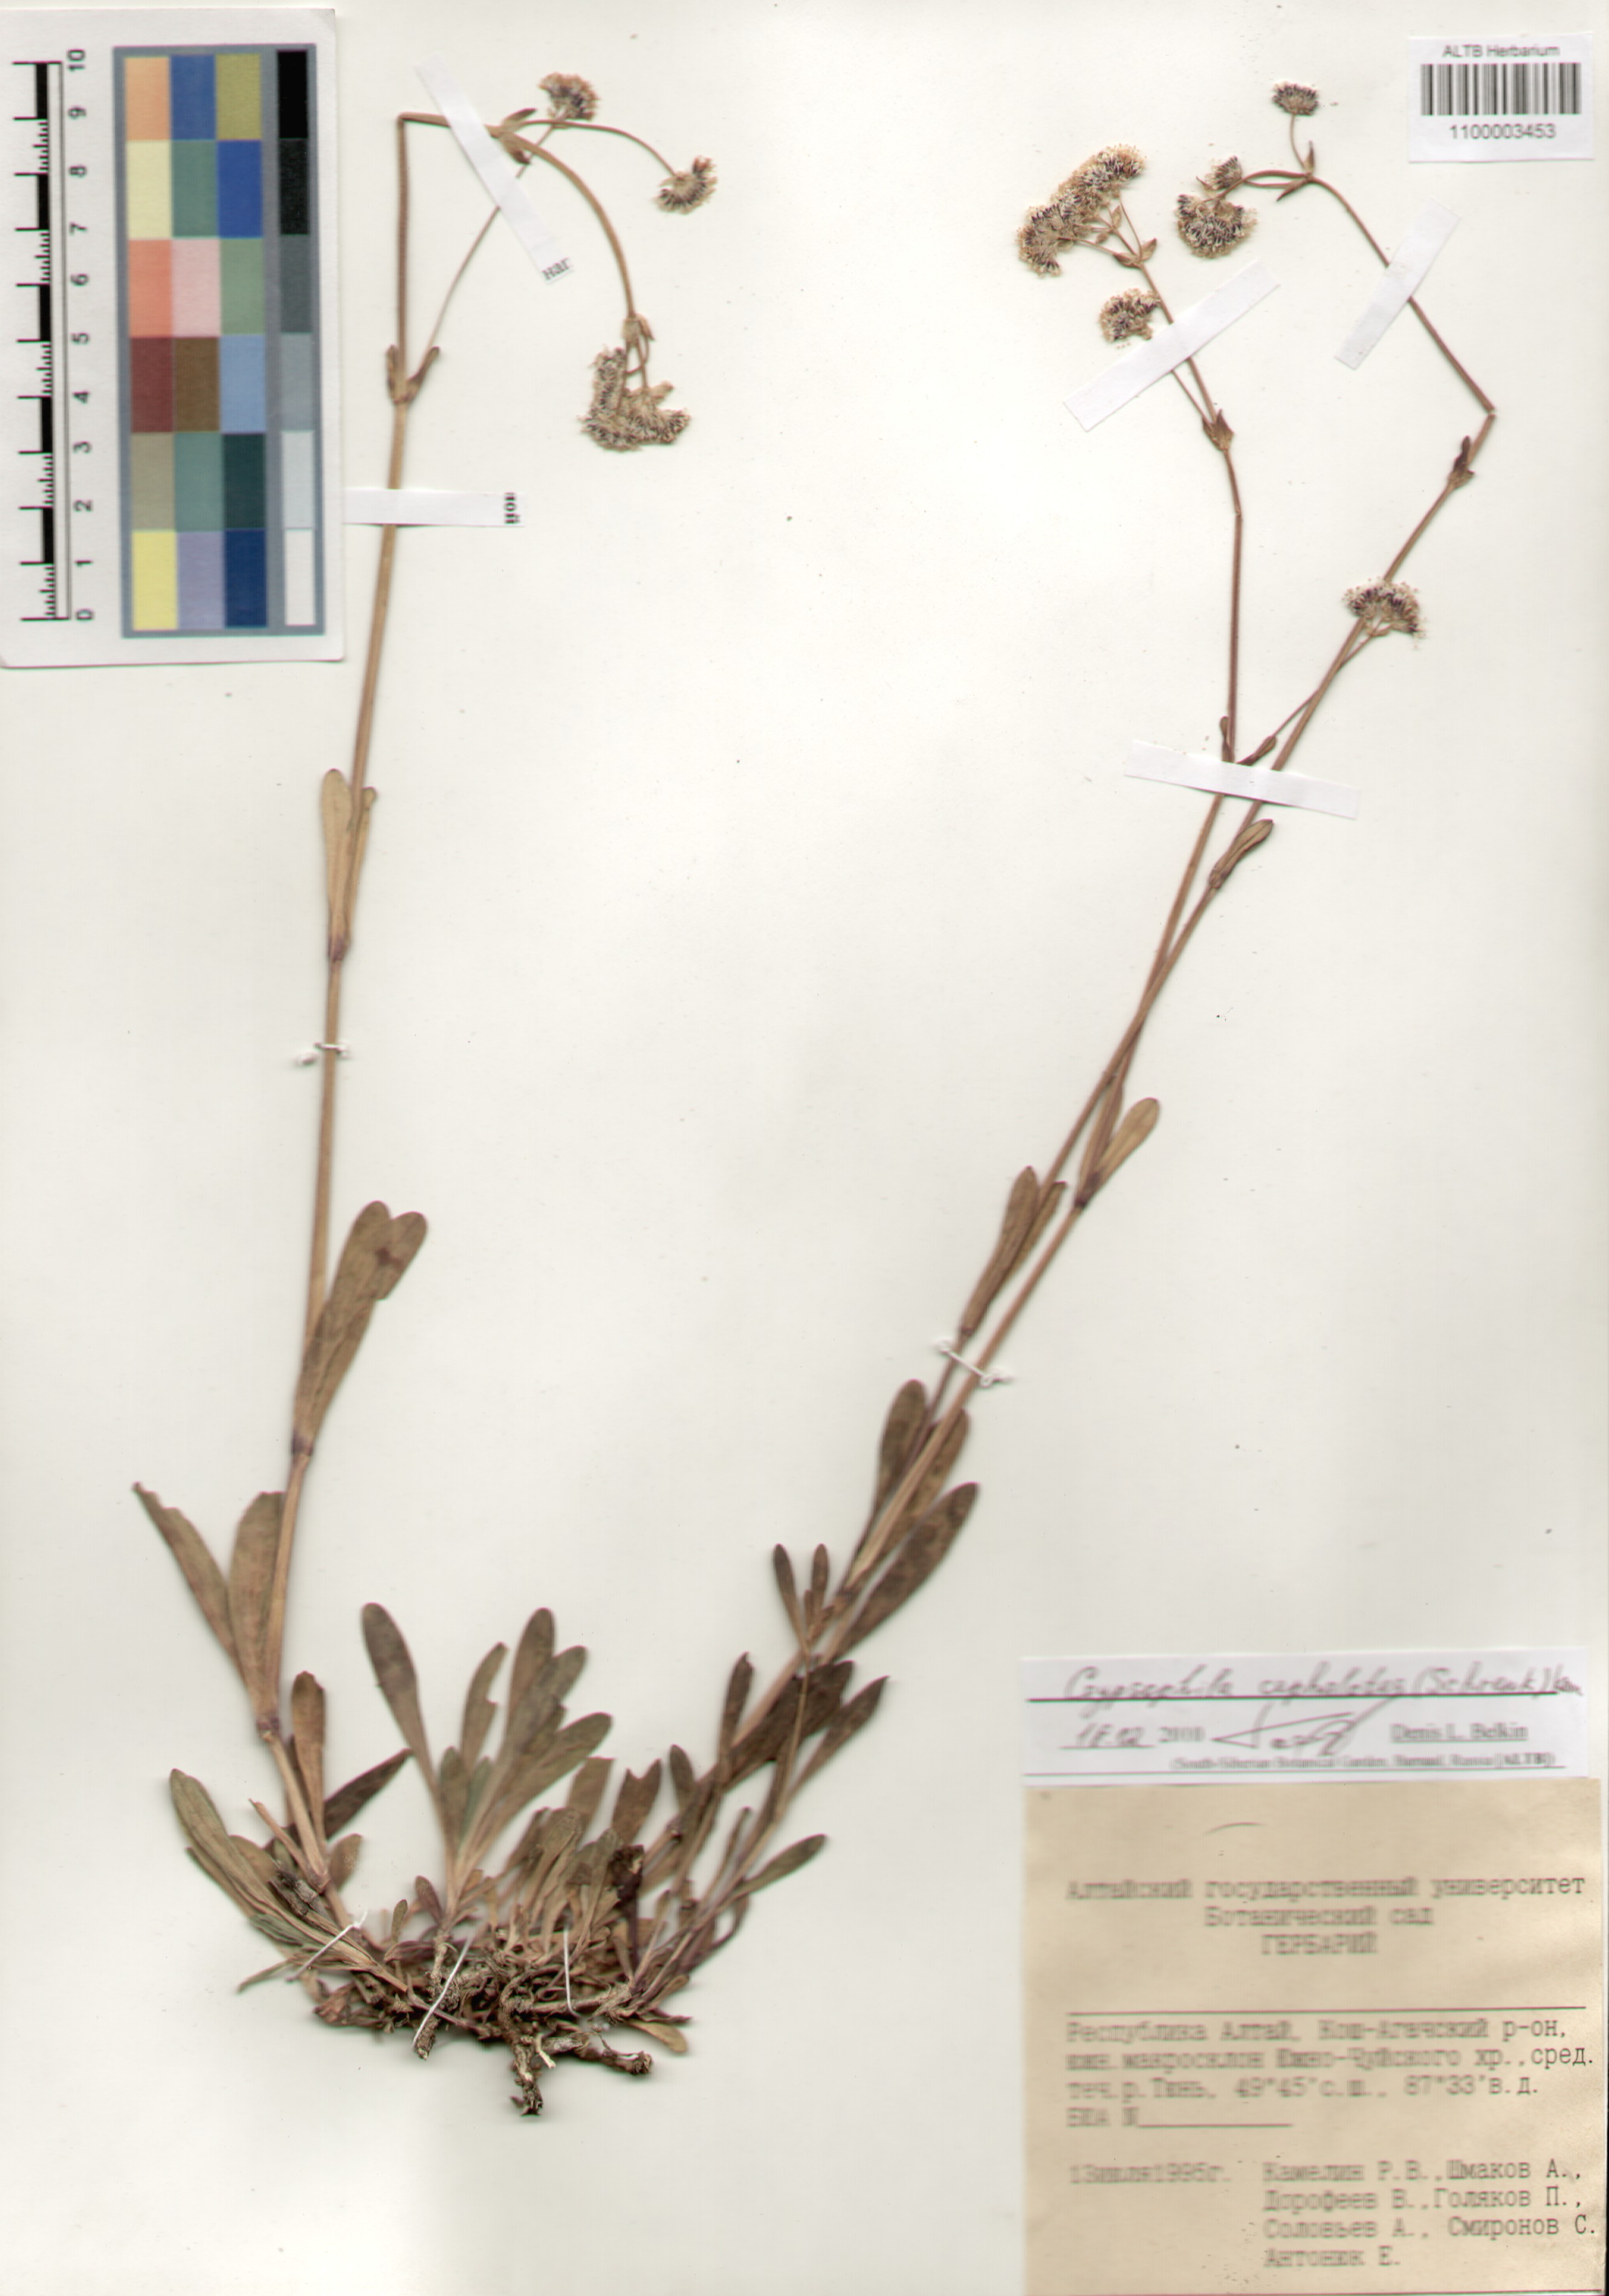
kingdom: Plantae
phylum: Tracheophyta
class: Magnoliopsida
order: Caryophyllales
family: Caryophyllaceae
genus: Gypsophila
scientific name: Gypsophila cephalotes
